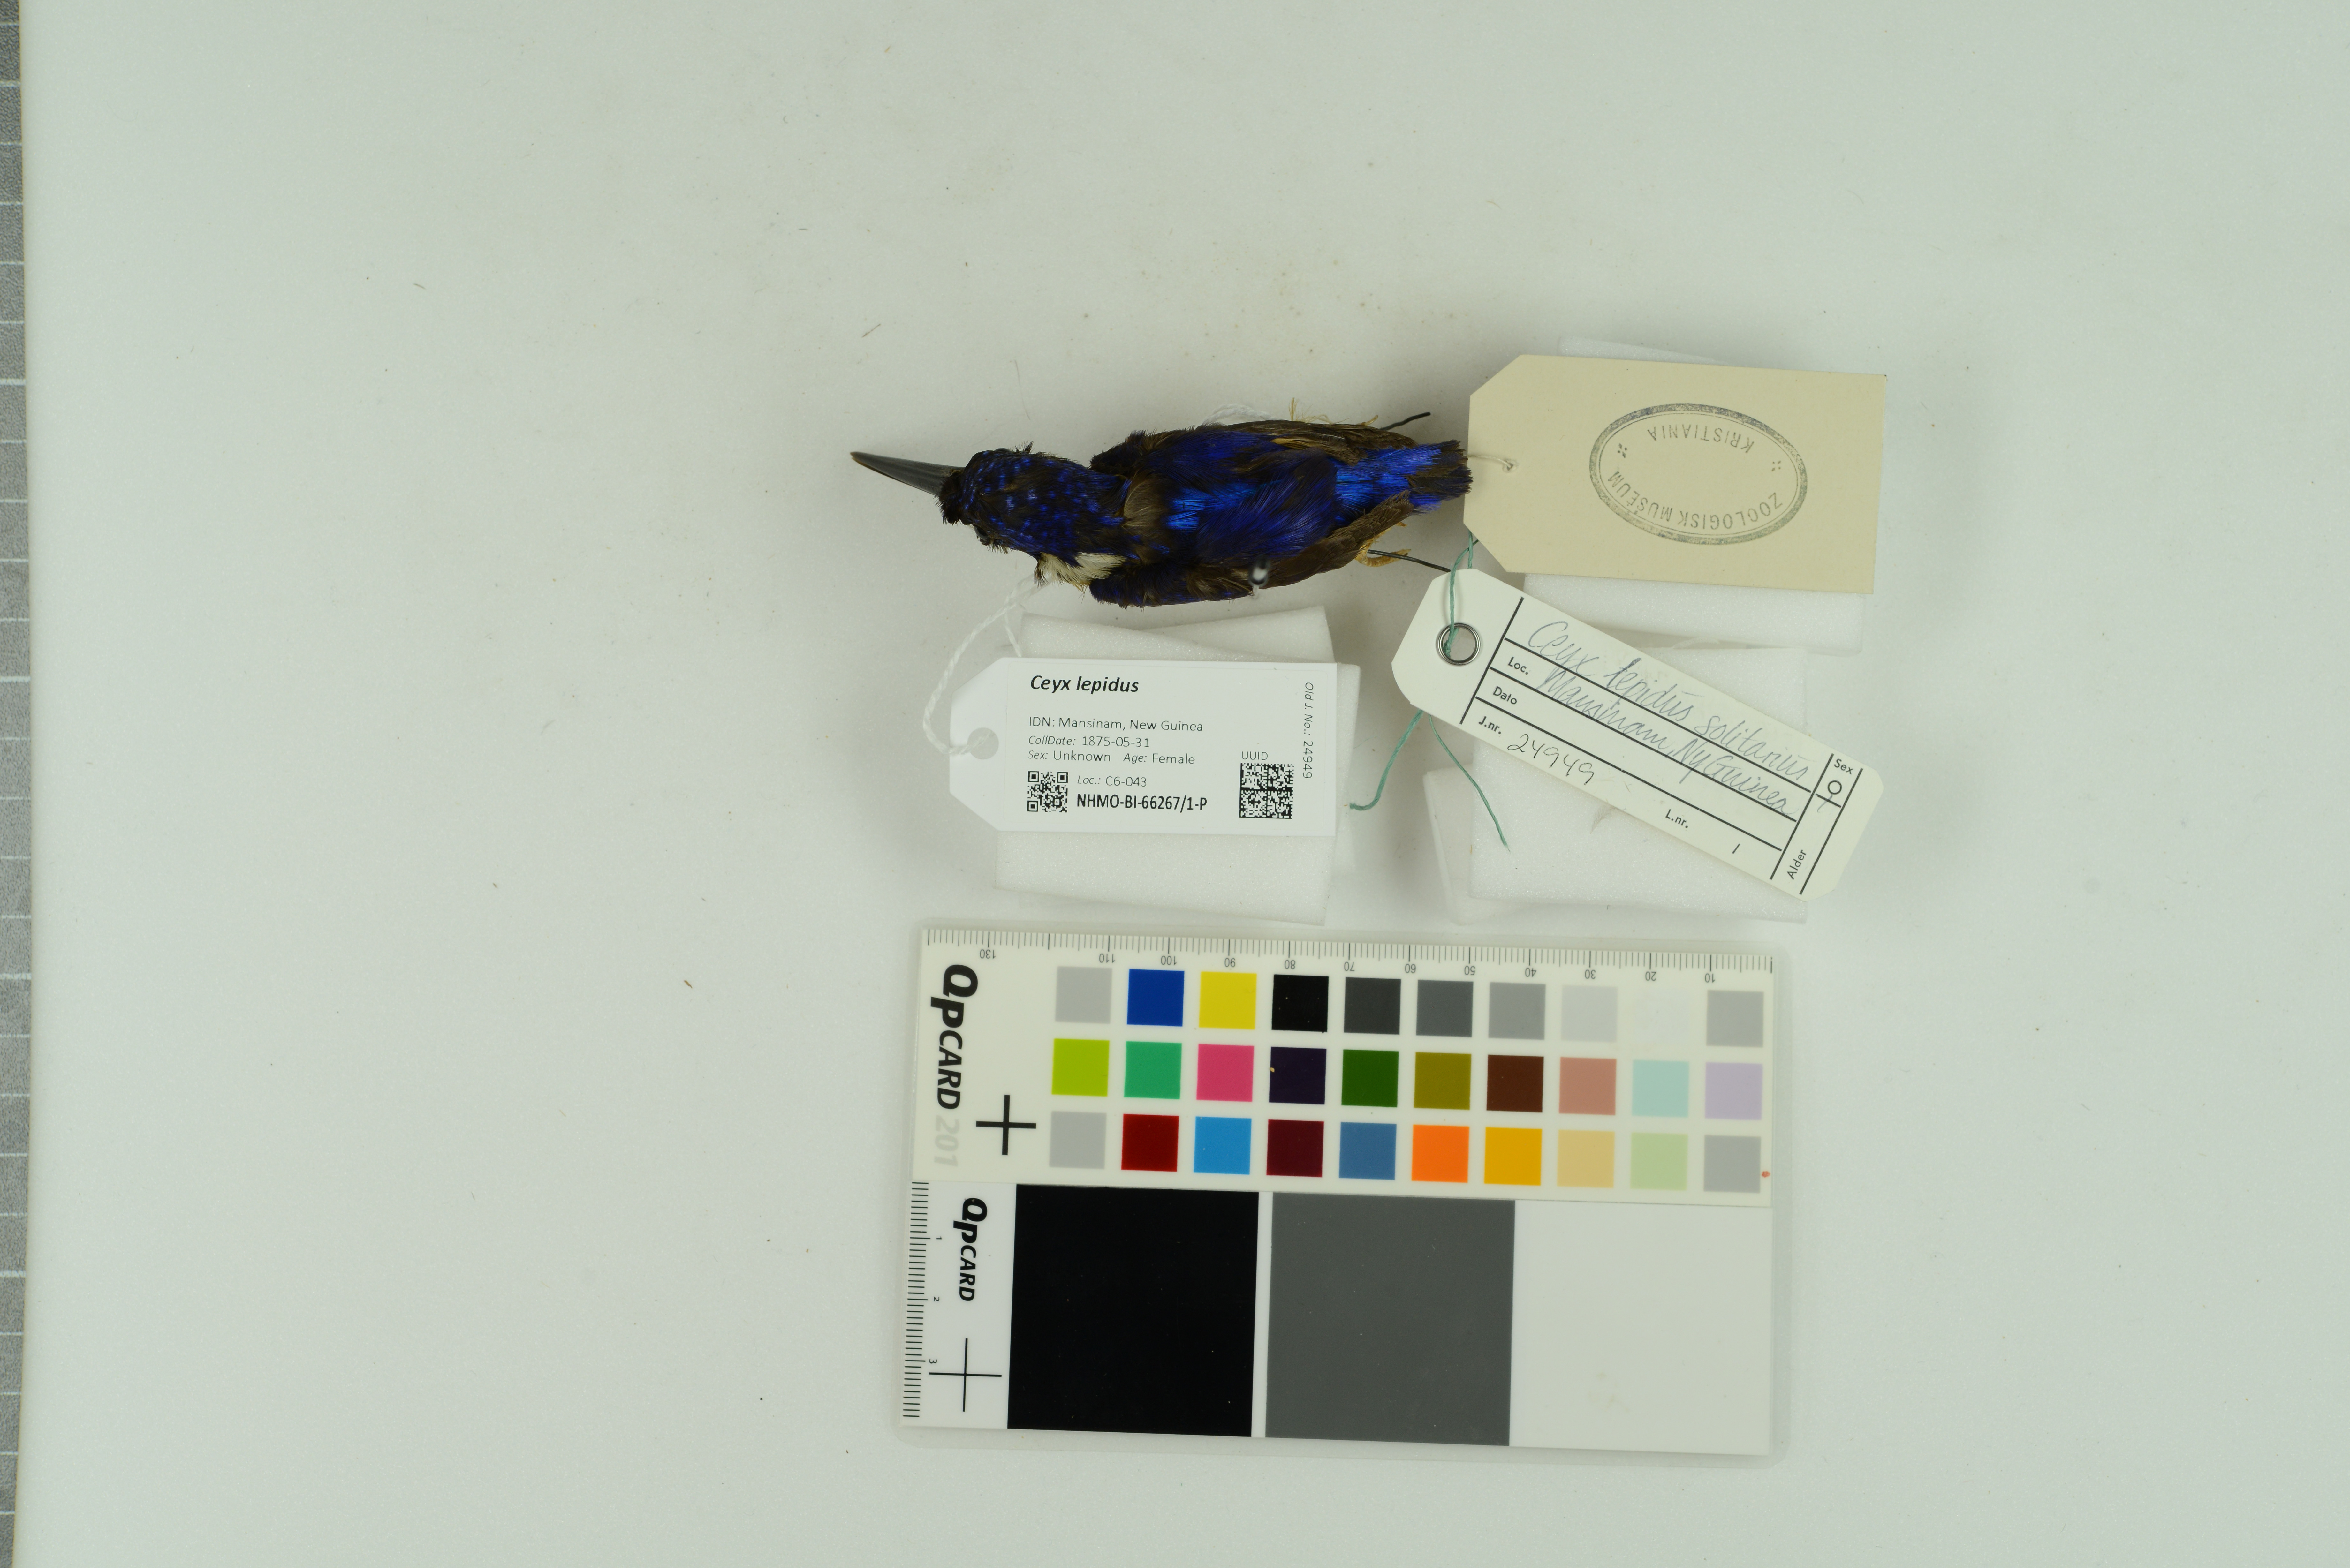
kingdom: Animalia
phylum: Chordata
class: Aves
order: Coraciiformes
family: Alcedinidae
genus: Ceyx
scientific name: Ceyx lepidus
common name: Chameleon dwarf kingfisher
